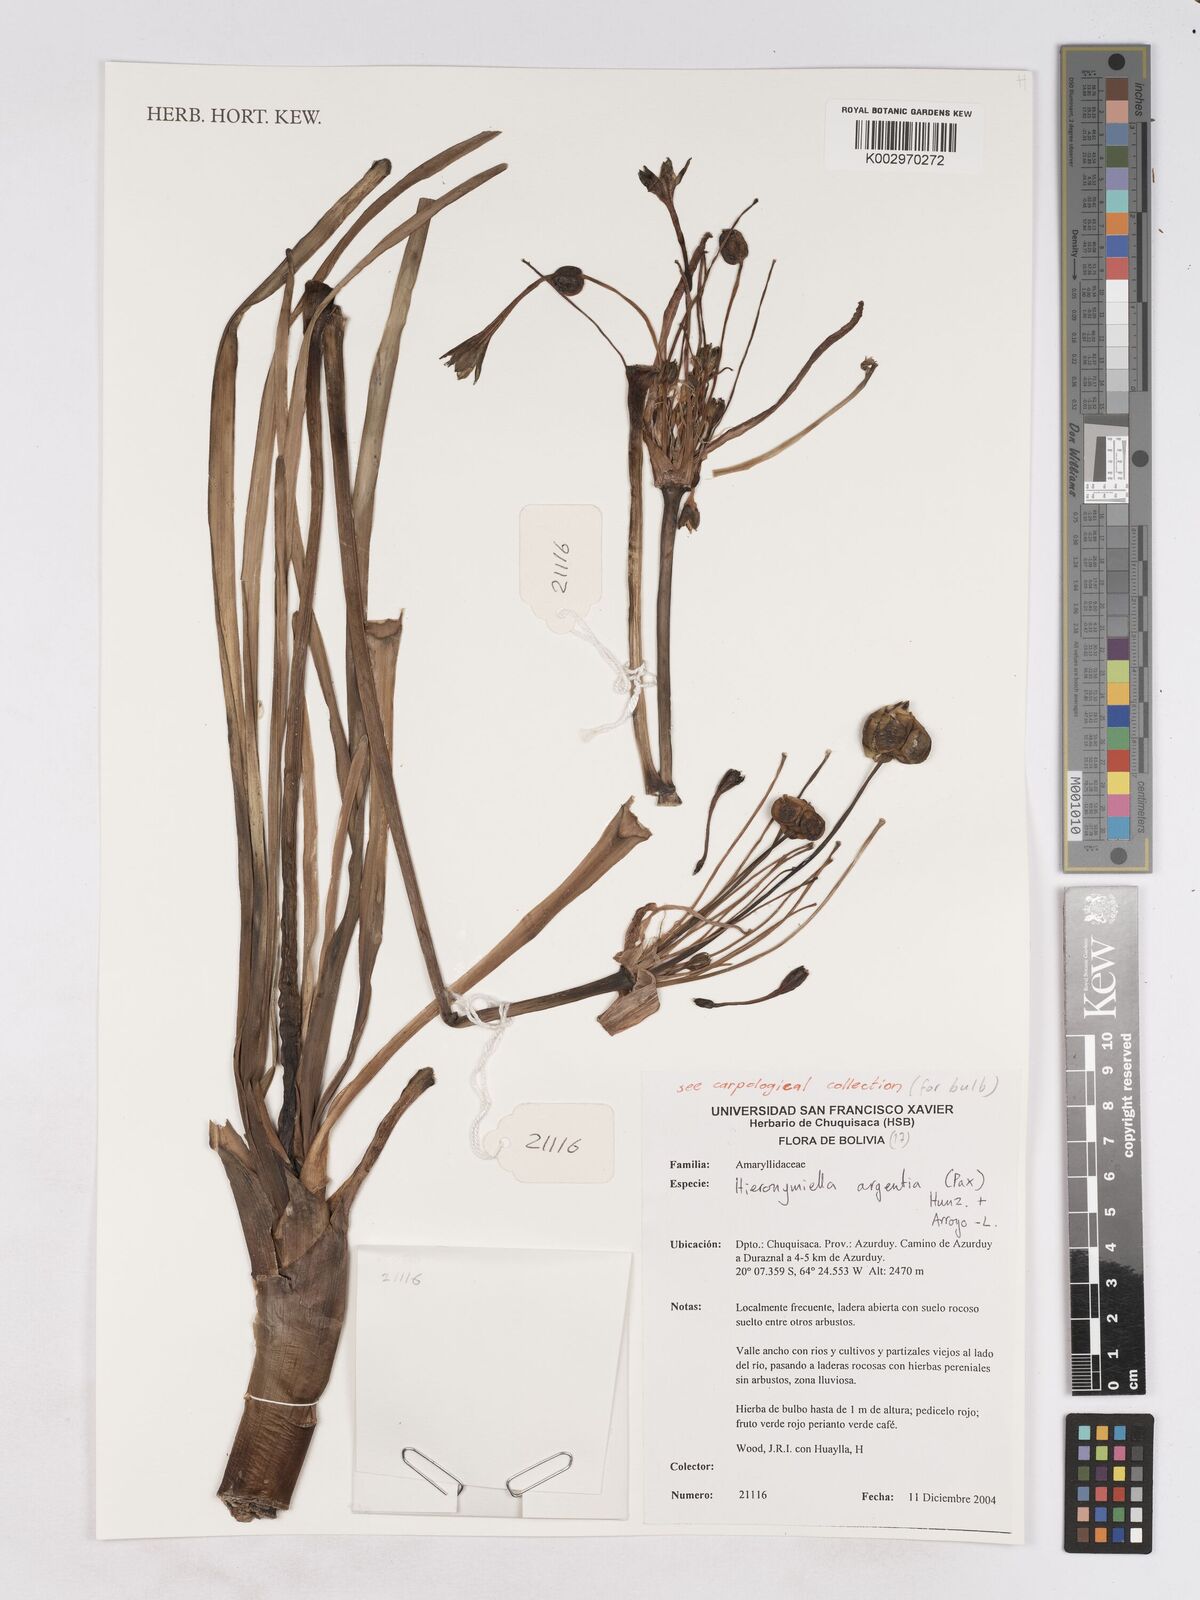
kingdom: Plantae
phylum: Tracheophyta
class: Liliopsida
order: Asparagales
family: Amaryllidaceae
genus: Hieronymiella
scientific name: Hieronymiella argentina
